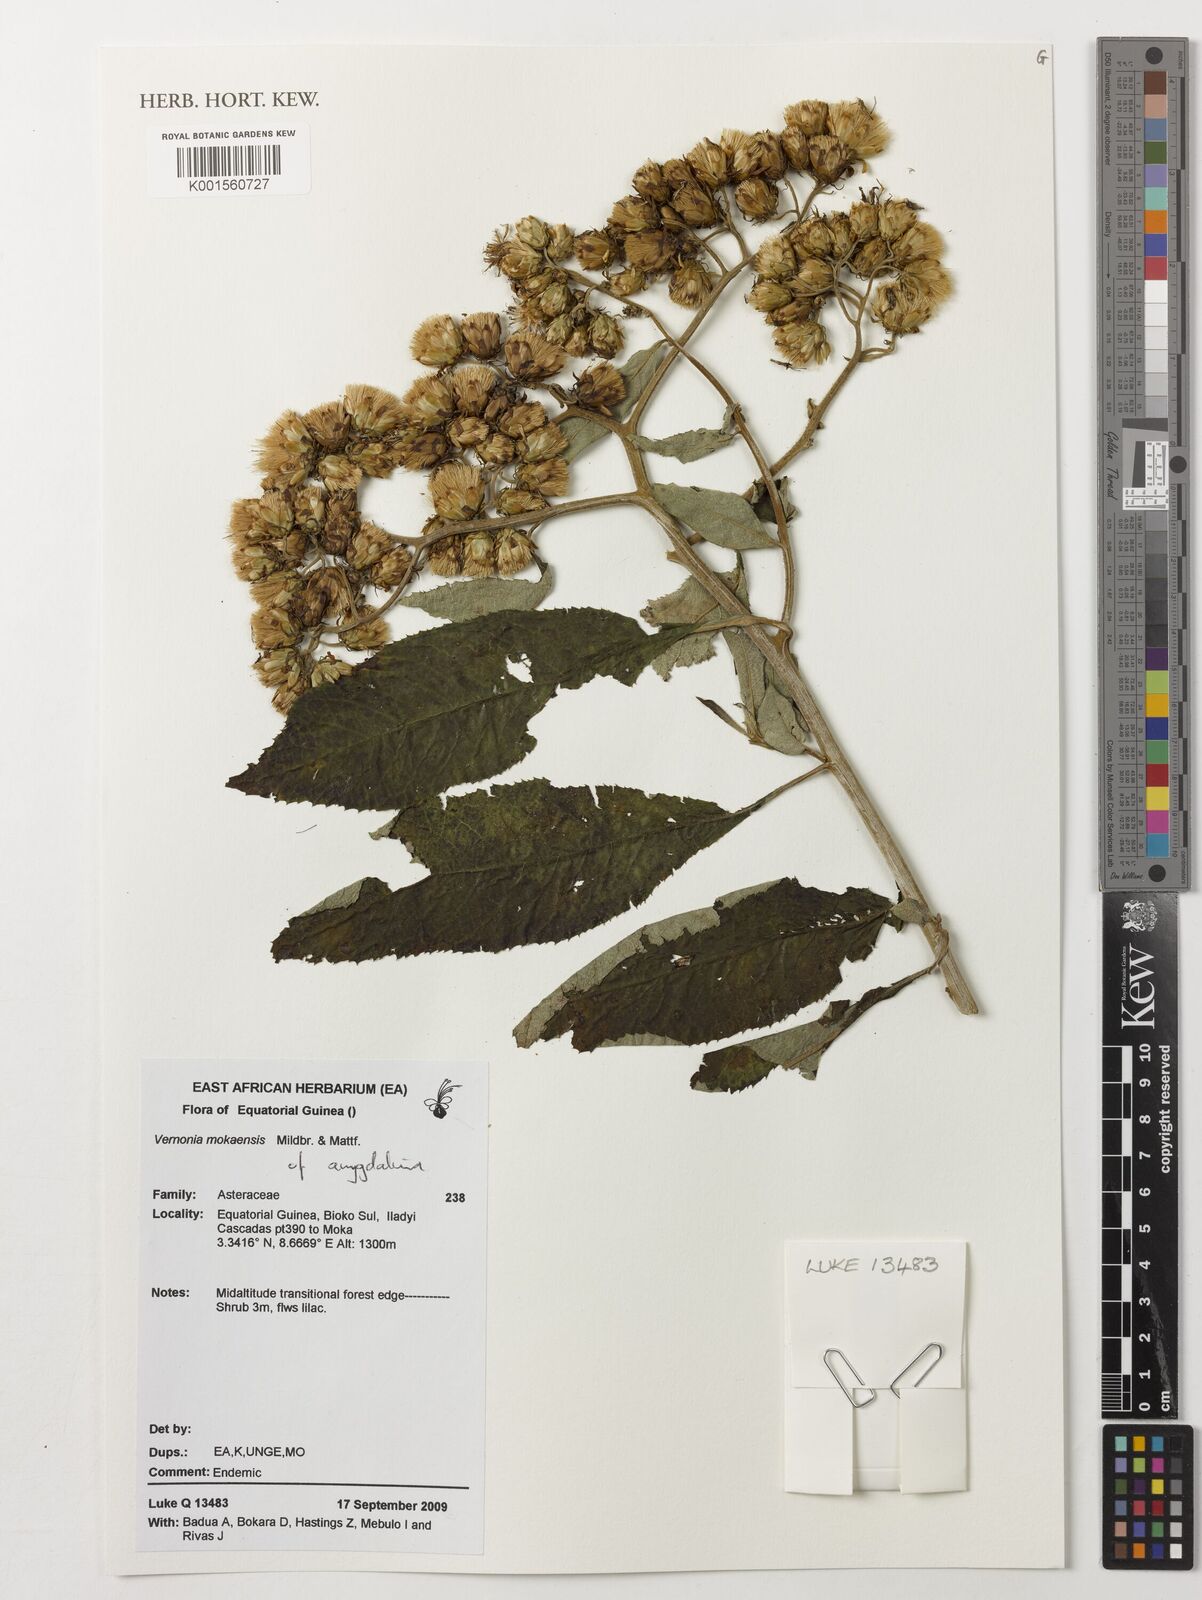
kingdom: Plantae
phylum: Tracheophyta
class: Magnoliopsida
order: Asterales
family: Asteraceae
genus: Baccharoides
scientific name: Baccharoides calvoana
